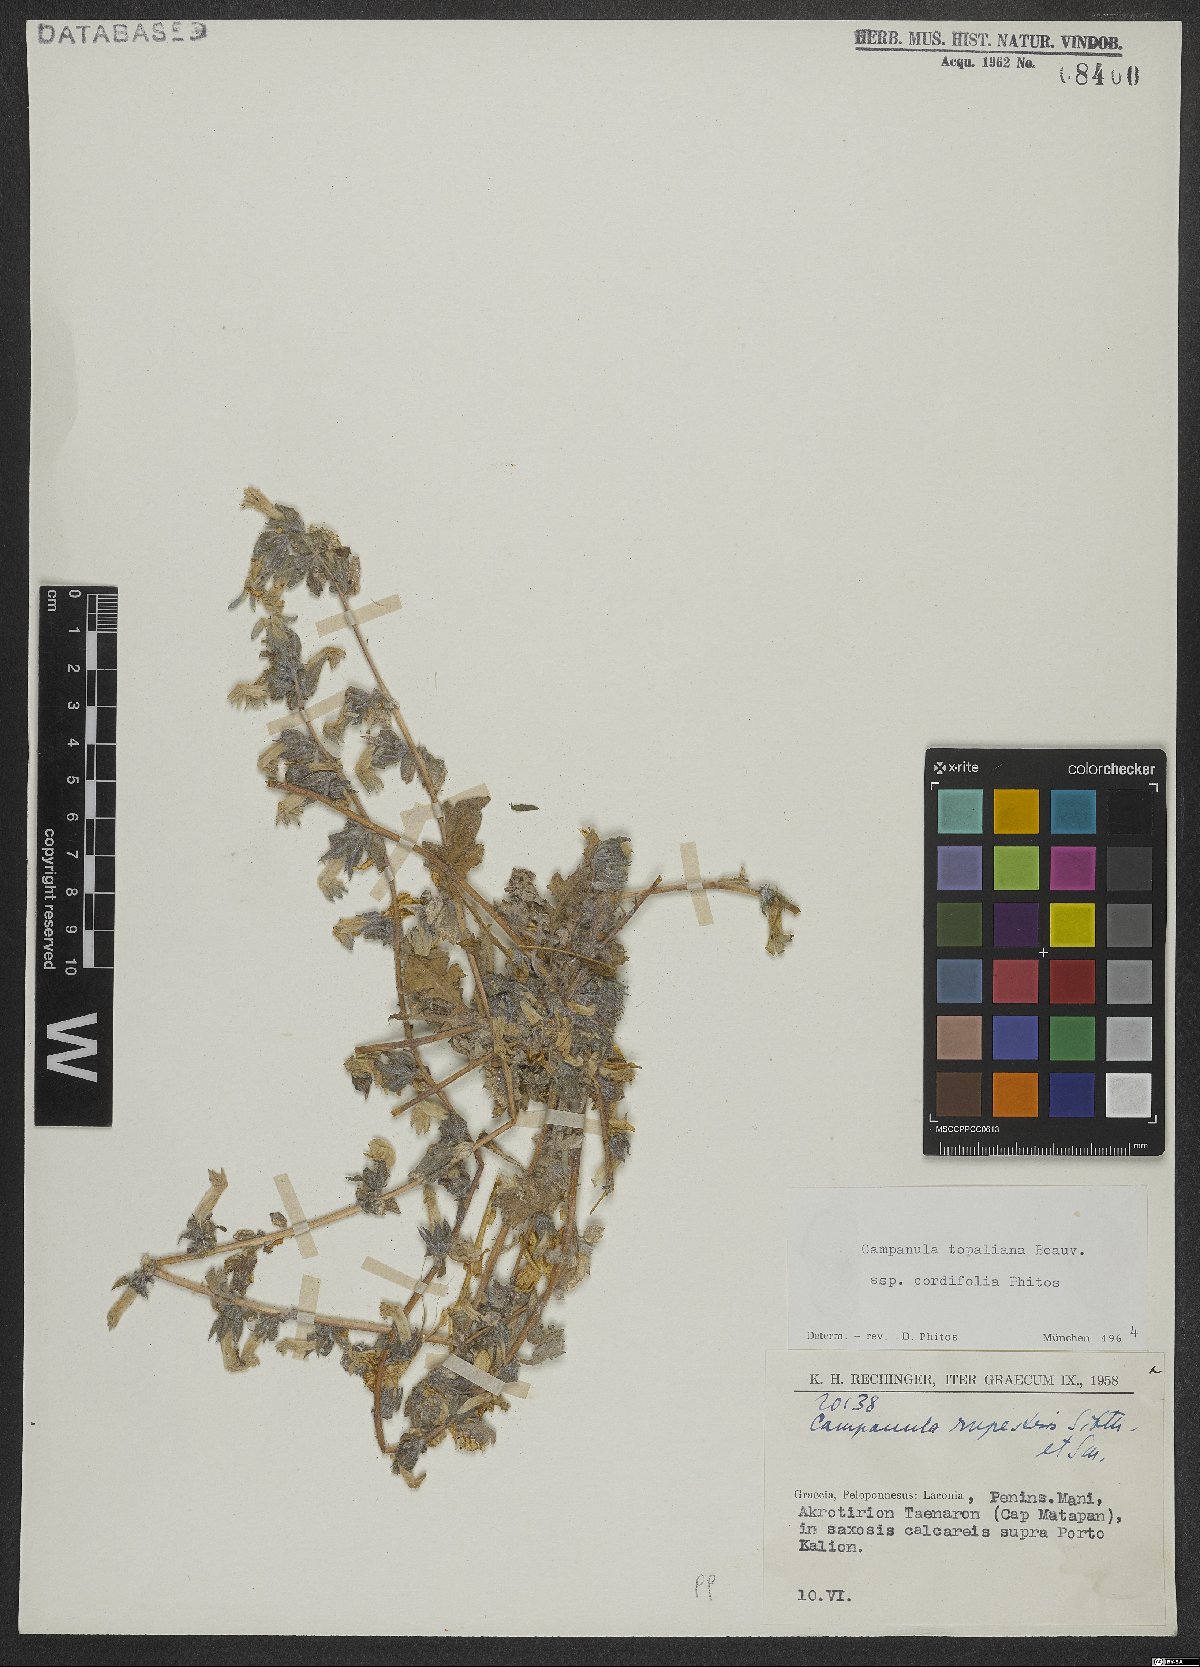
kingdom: Plantae
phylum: Tracheophyta
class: Magnoliopsida
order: Asterales
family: Campanulaceae
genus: Campanula
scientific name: Campanula topaliana
